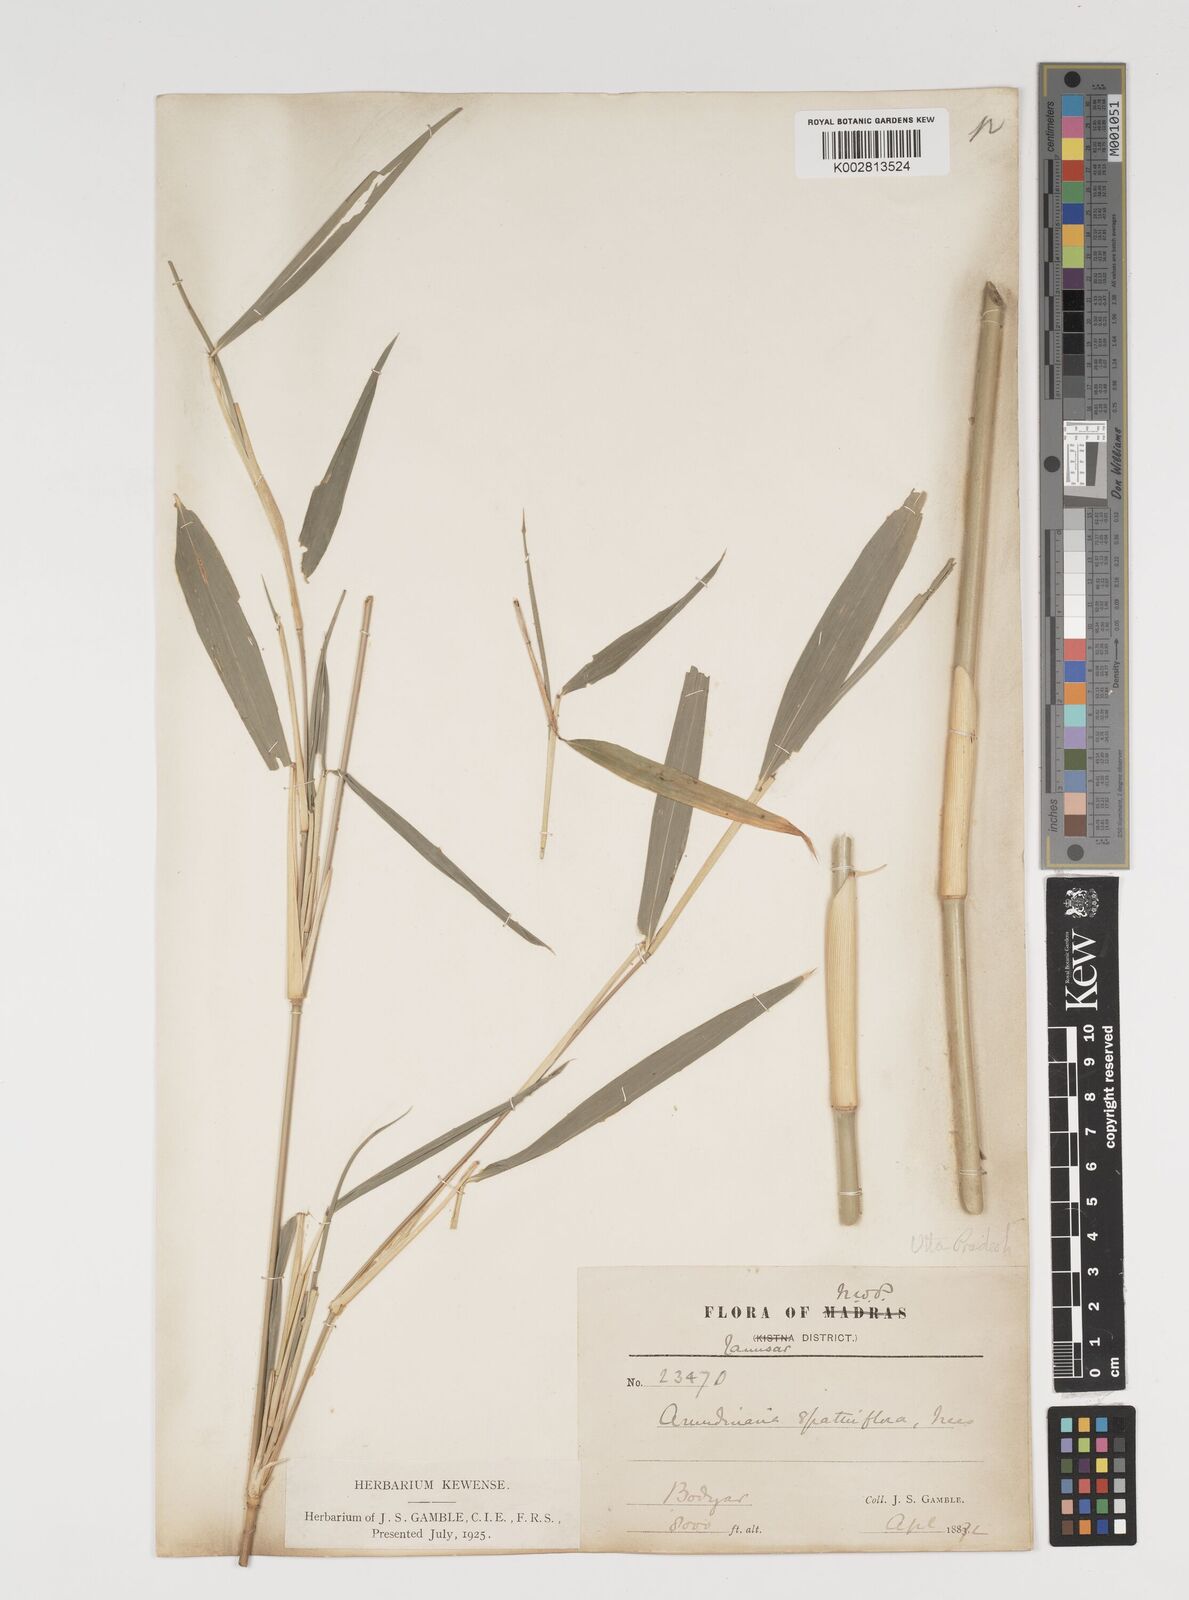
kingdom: Plantae
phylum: Tracheophyta
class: Liliopsida
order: Poales
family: Poaceae
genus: Thamnocalamus
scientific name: Thamnocalamus spathiflorus
